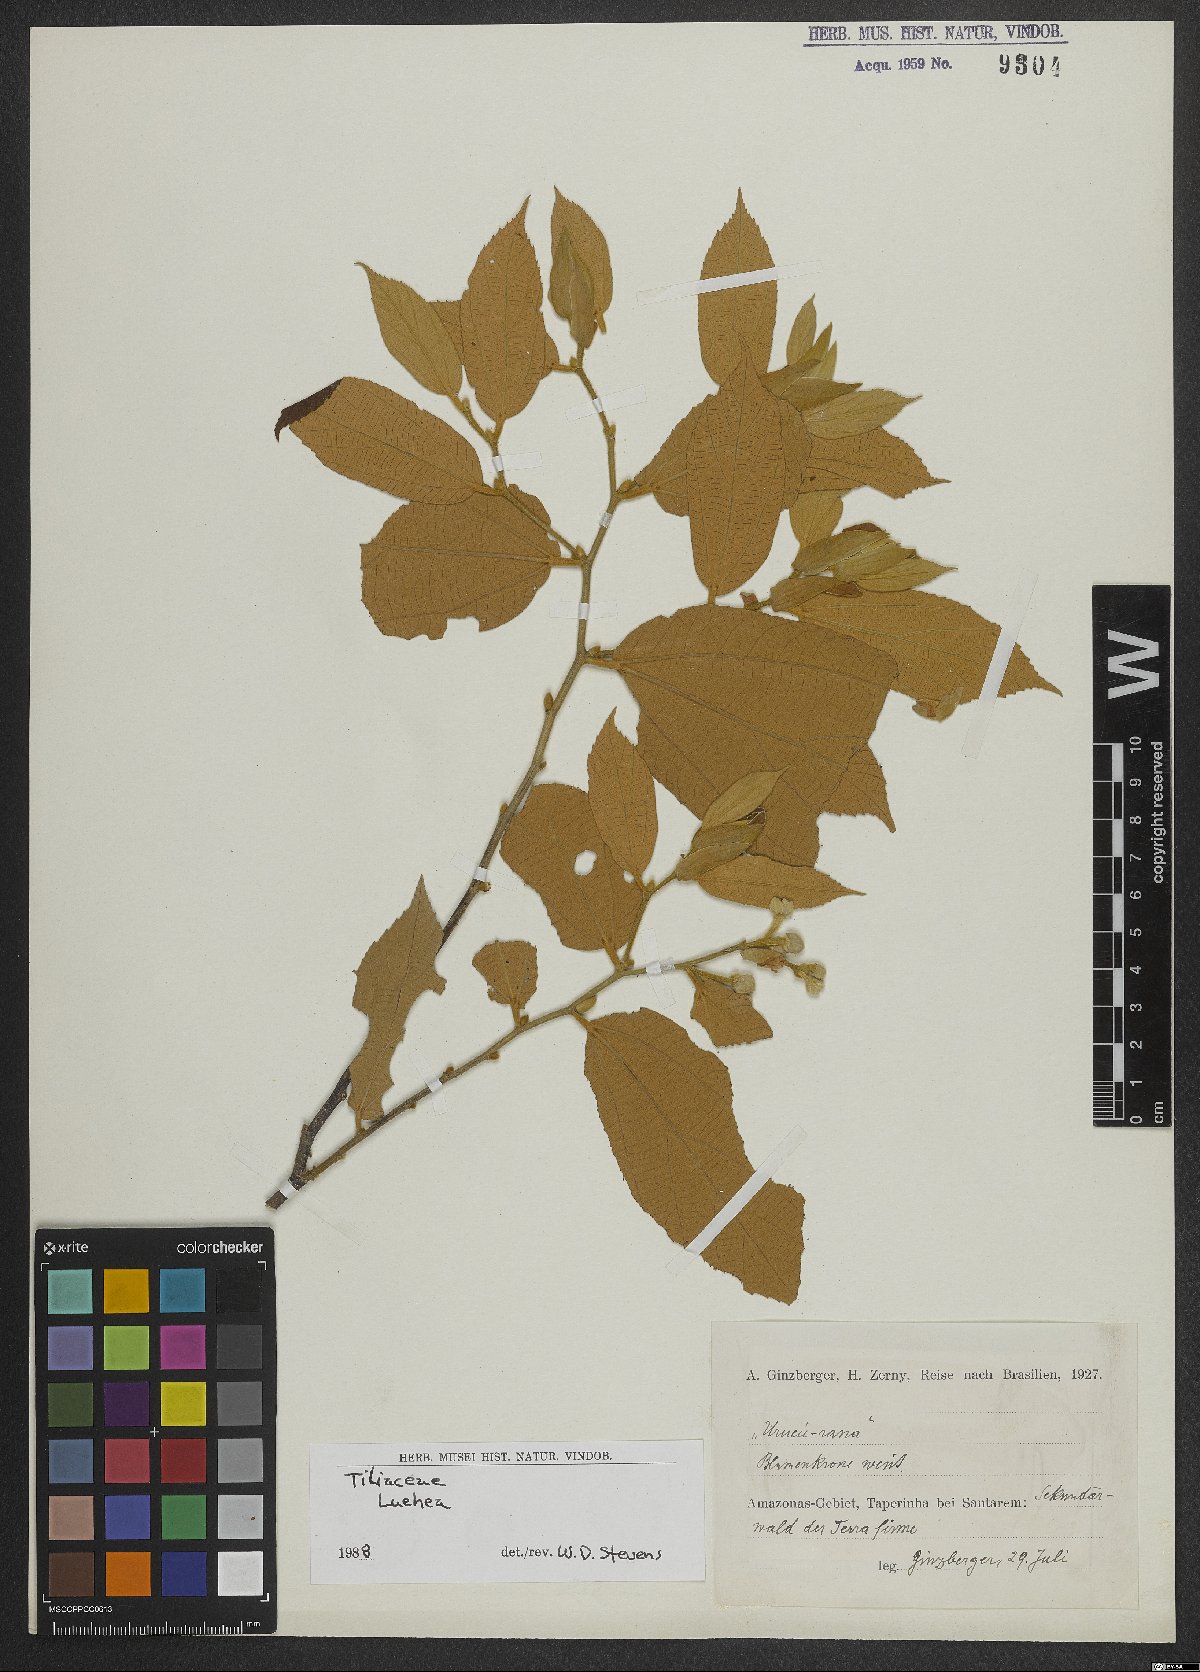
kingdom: Plantae
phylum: Tracheophyta
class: Magnoliopsida
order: Malvales
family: Malvaceae
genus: Luehea
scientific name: Luehea
